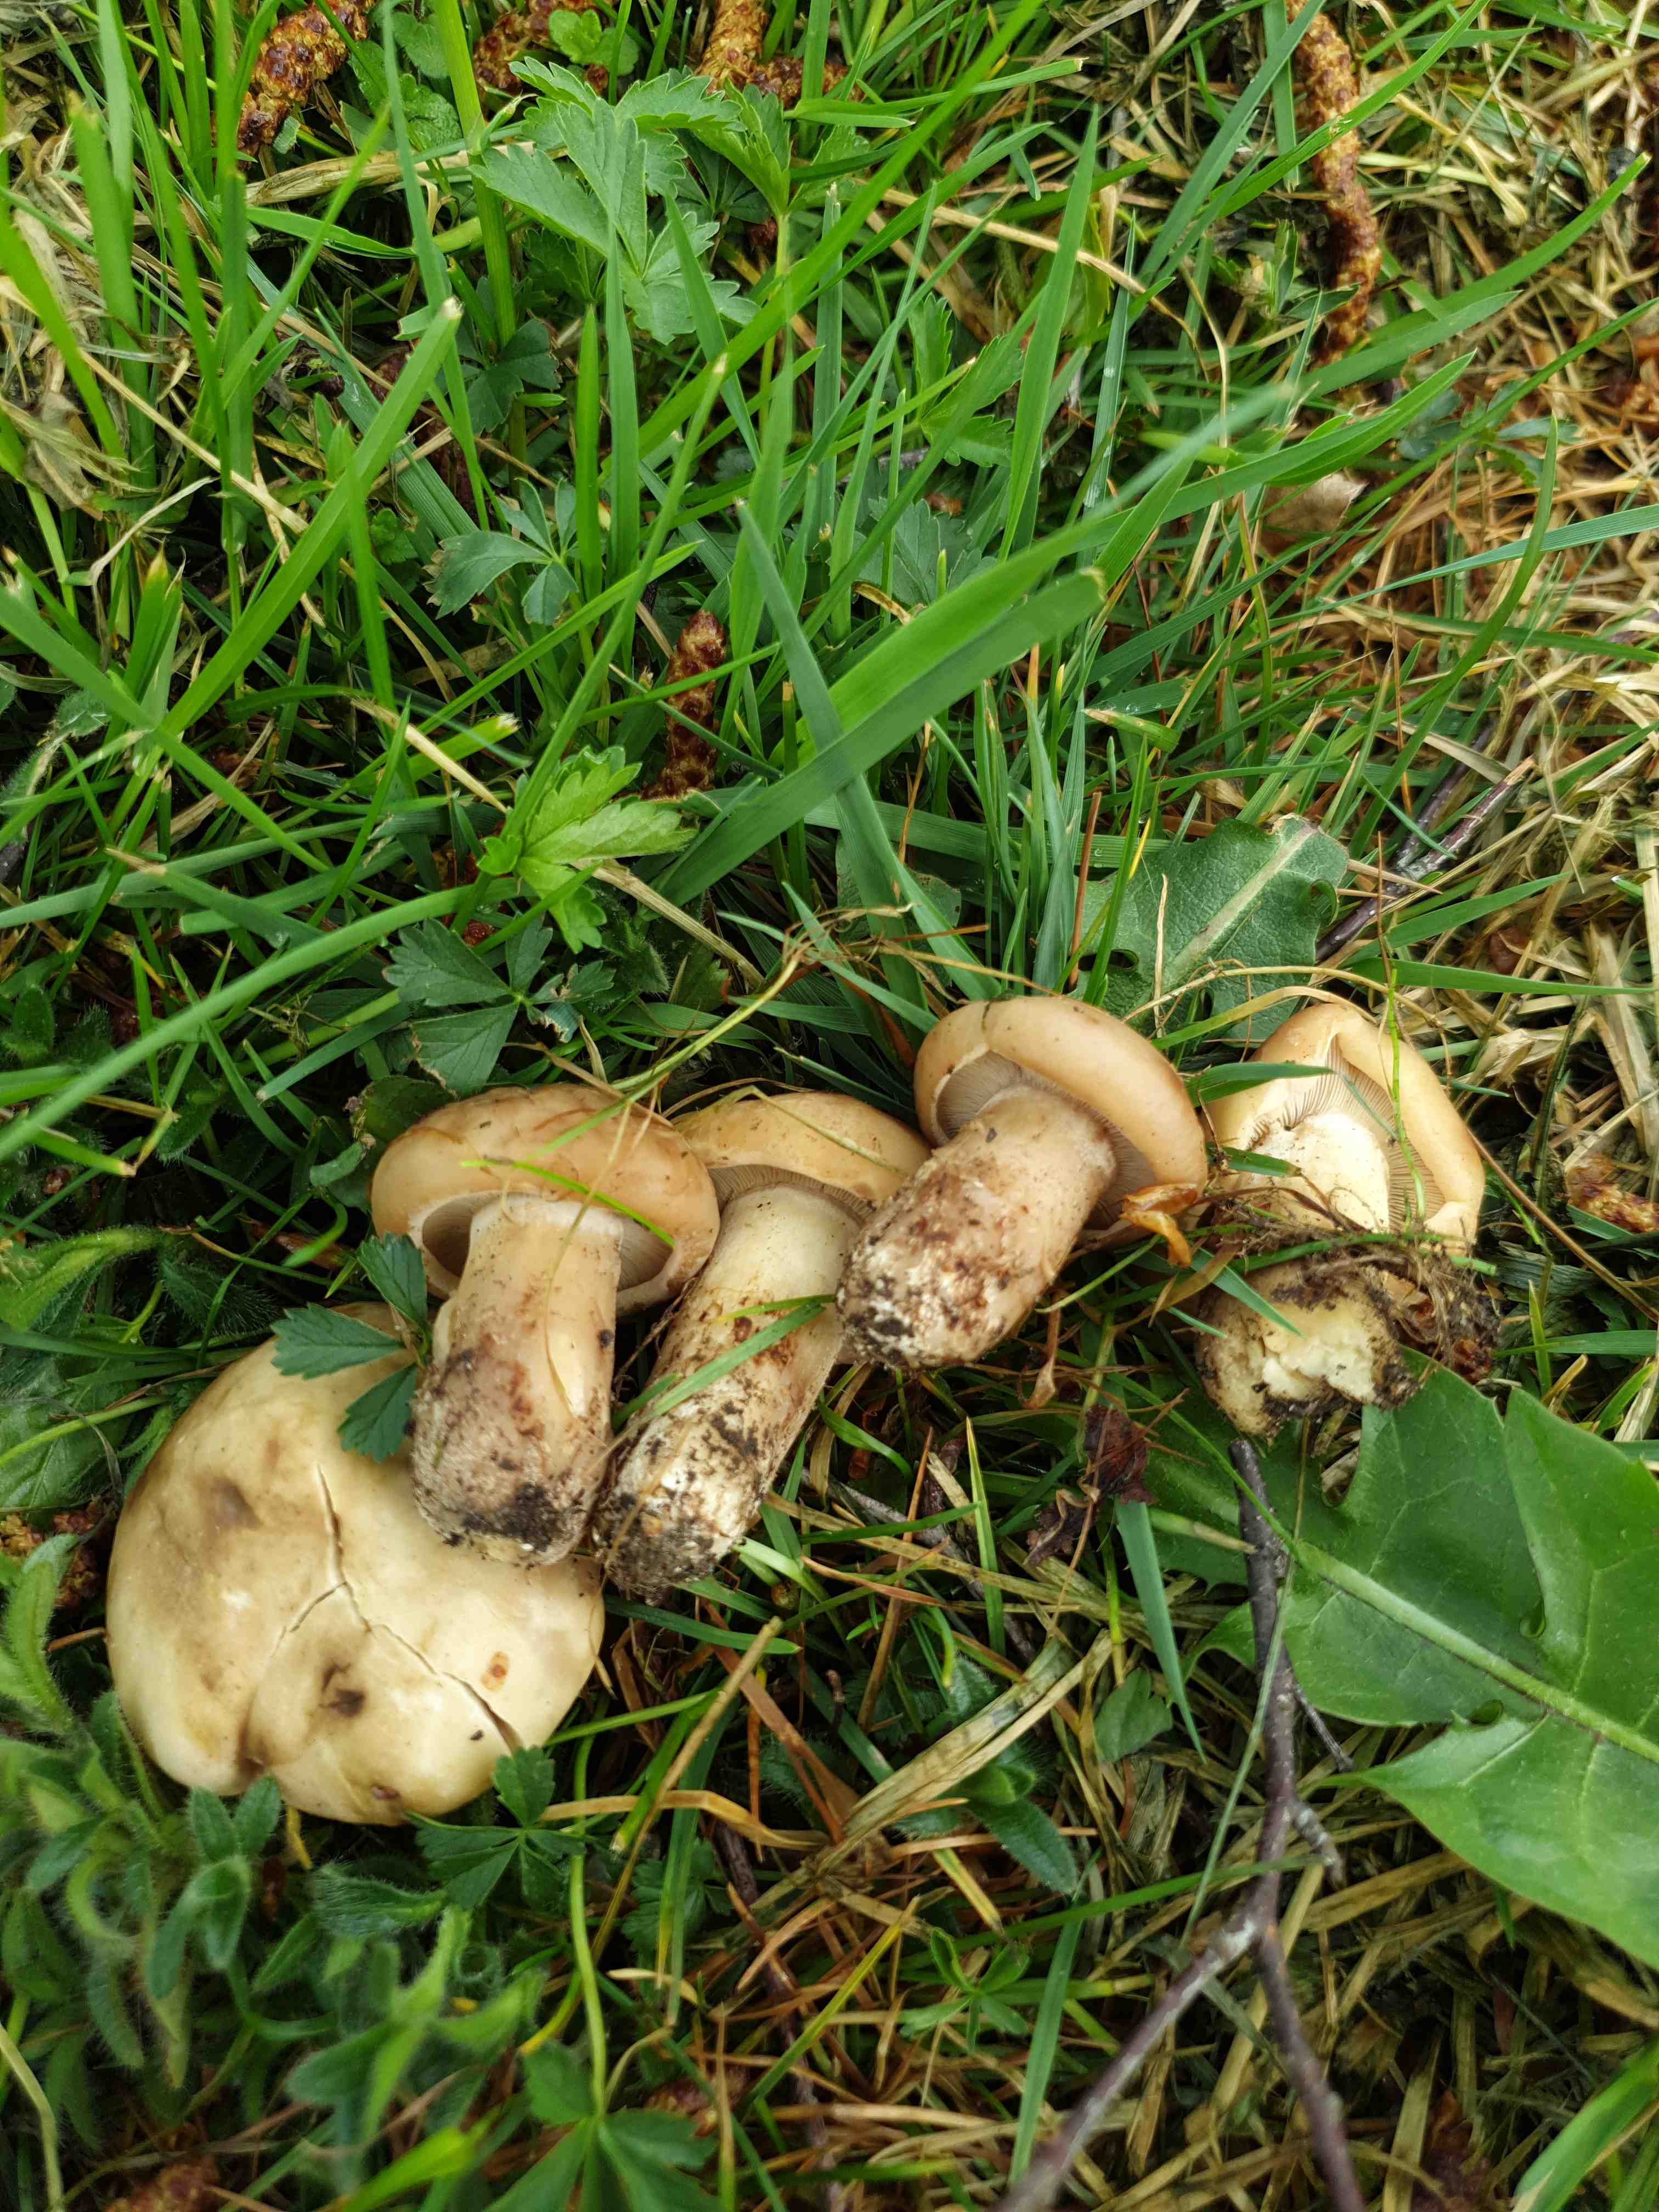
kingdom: Fungi
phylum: Basidiomycota
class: Agaricomycetes
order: Agaricales
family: Lyophyllaceae
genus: Calocybe
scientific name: Calocybe gambosa
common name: vårmusseron
